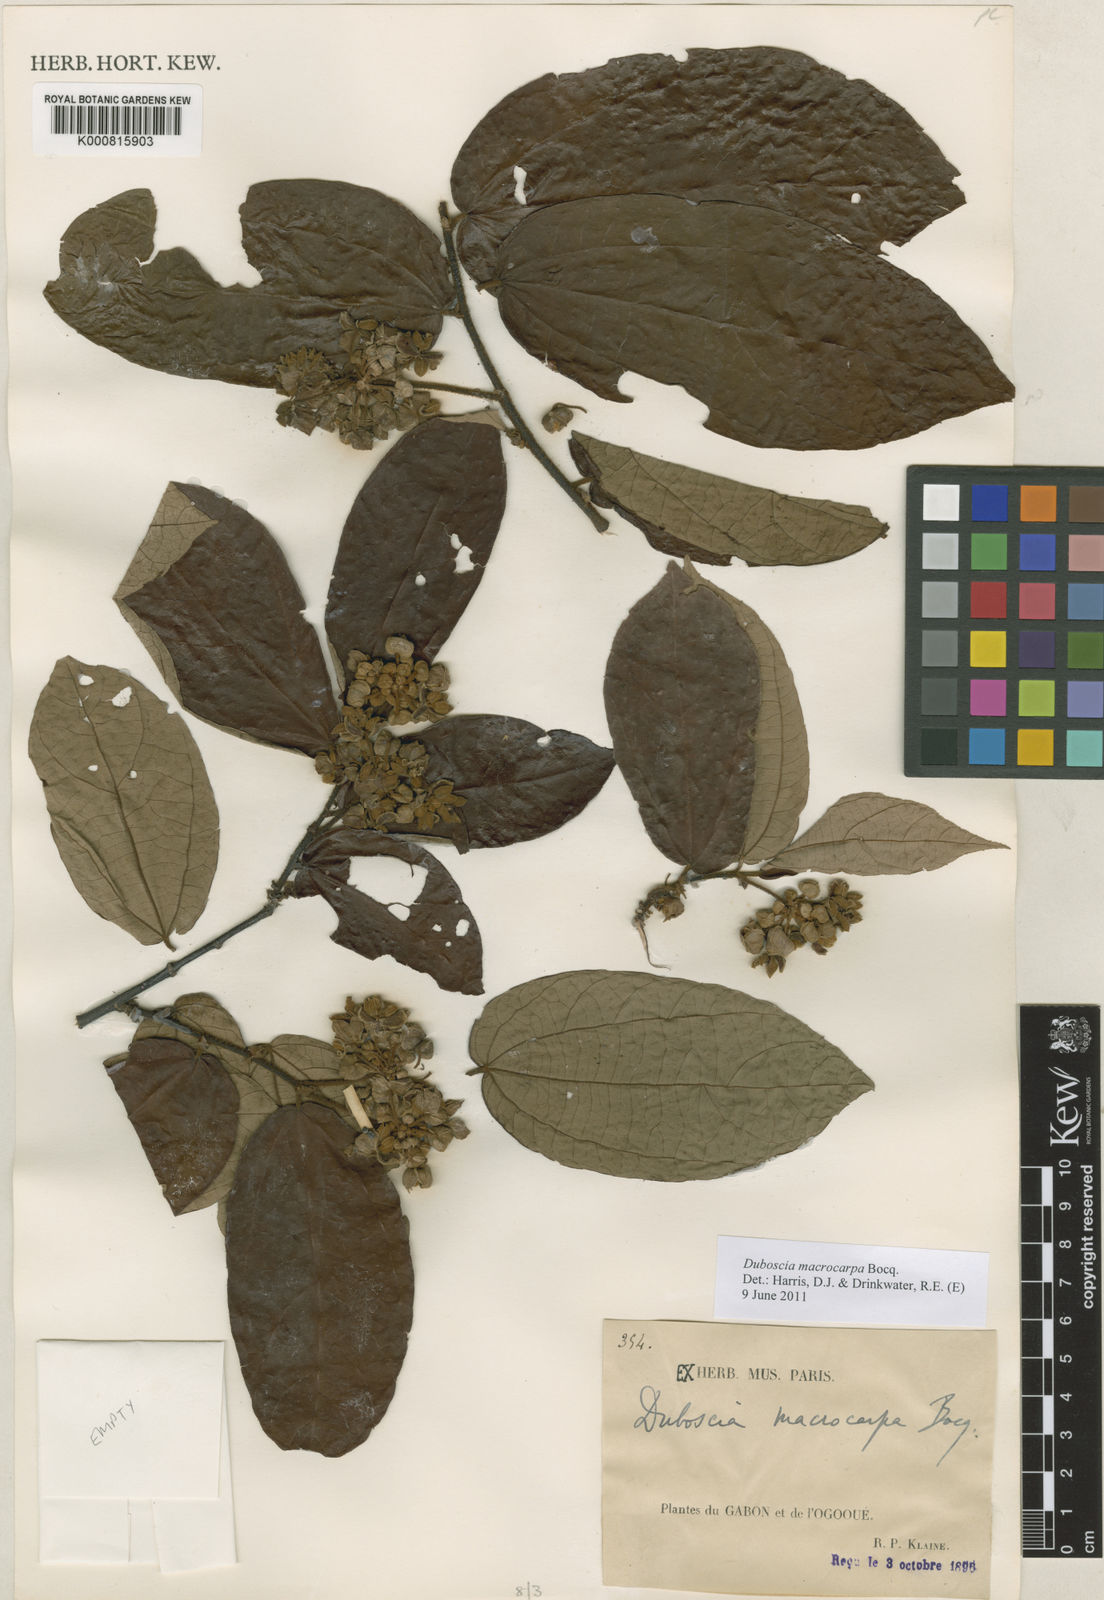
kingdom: Plantae
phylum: Tracheophyta
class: Magnoliopsida
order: Malvales
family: Malvaceae
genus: Duboscia
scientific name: Duboscia macrocarpa
